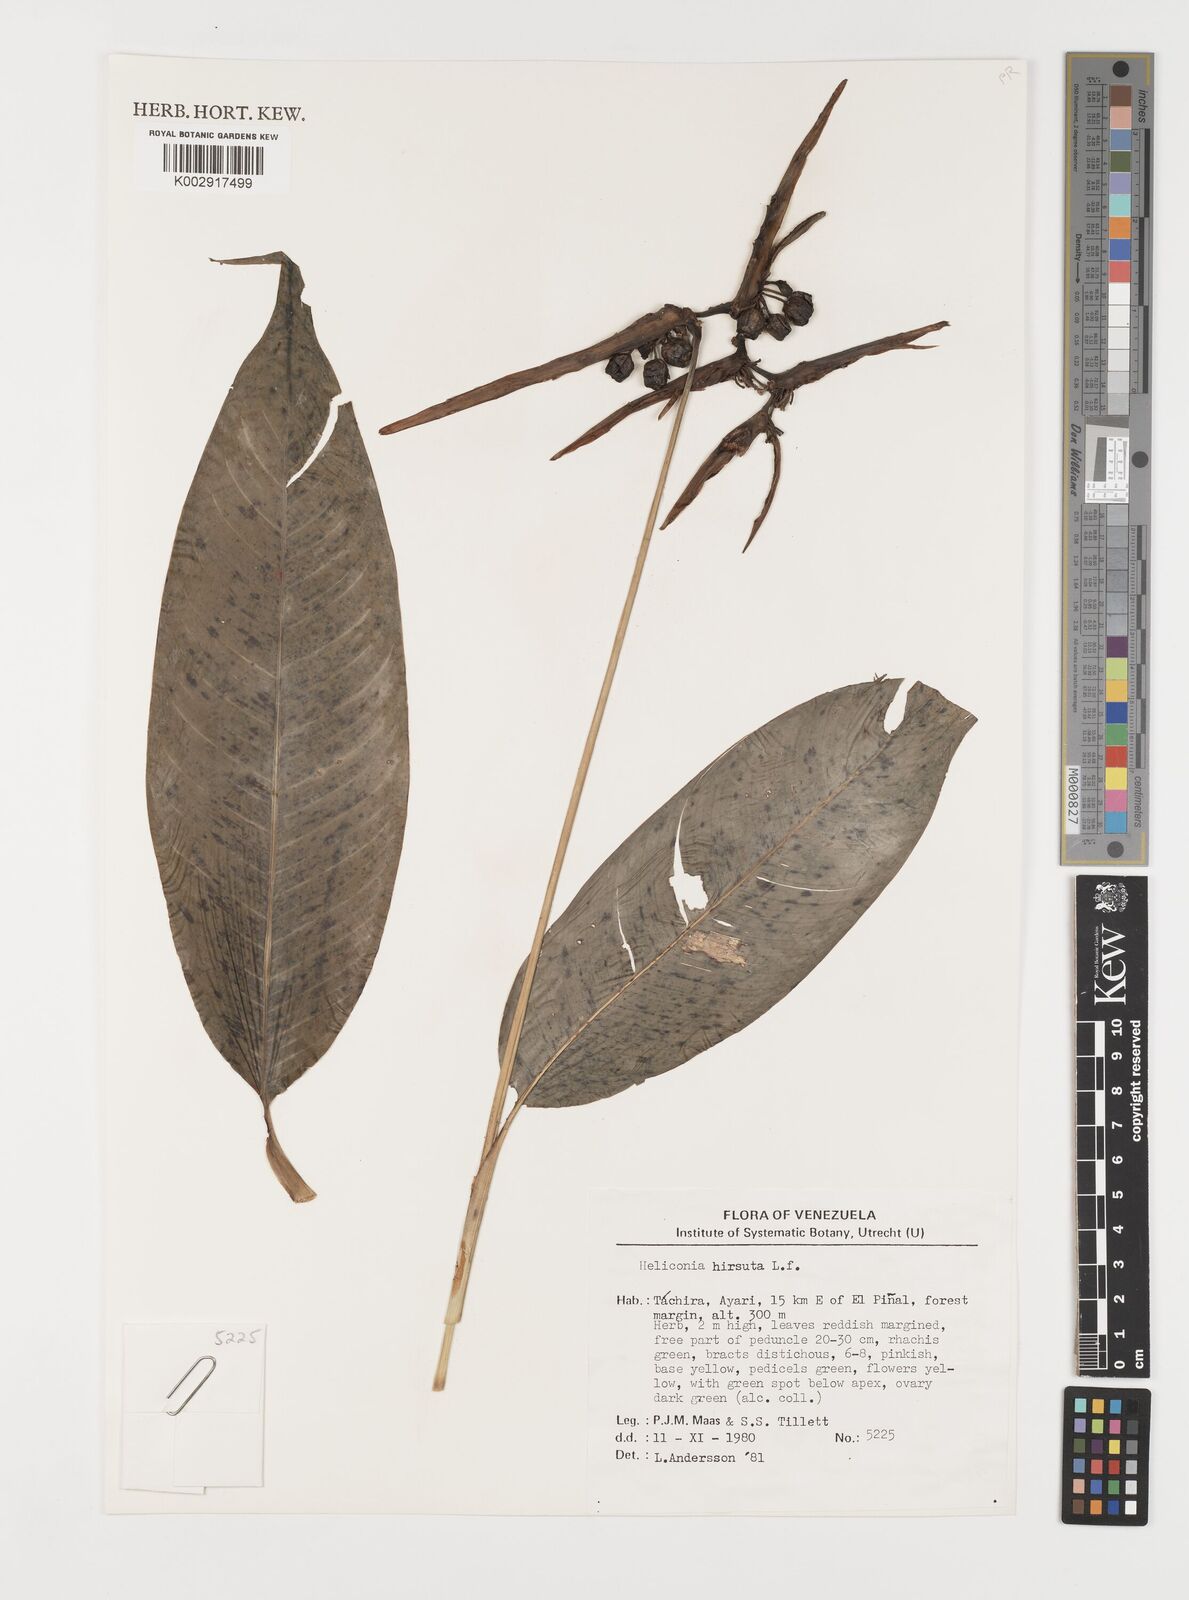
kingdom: Plantae
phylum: Tracheophyta
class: Liliopsida
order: Zingiberales
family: Heliconiaceae
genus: Heliconia
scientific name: Heliconia hirsuta
